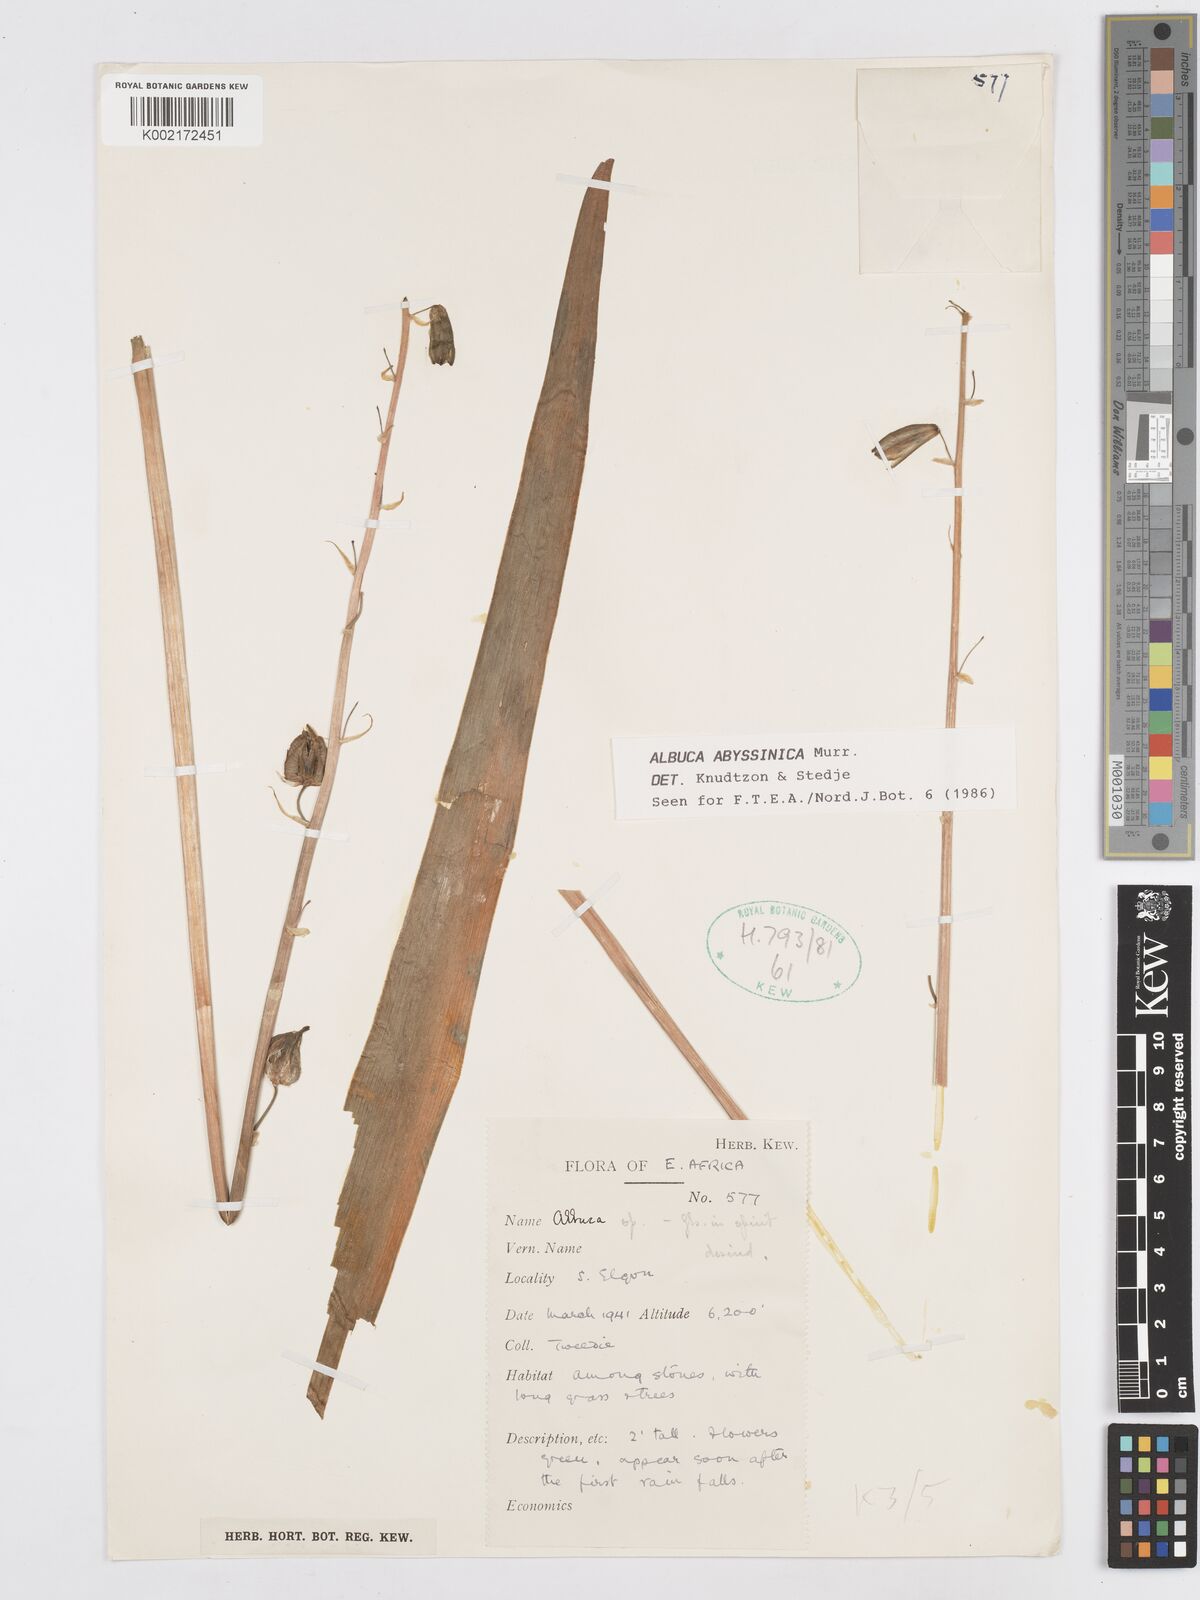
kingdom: Plantae
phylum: Tracheophyta
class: Liliopsida
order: Asparagales
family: Asparagaceae
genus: Albuca
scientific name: Albuca abyssinica
